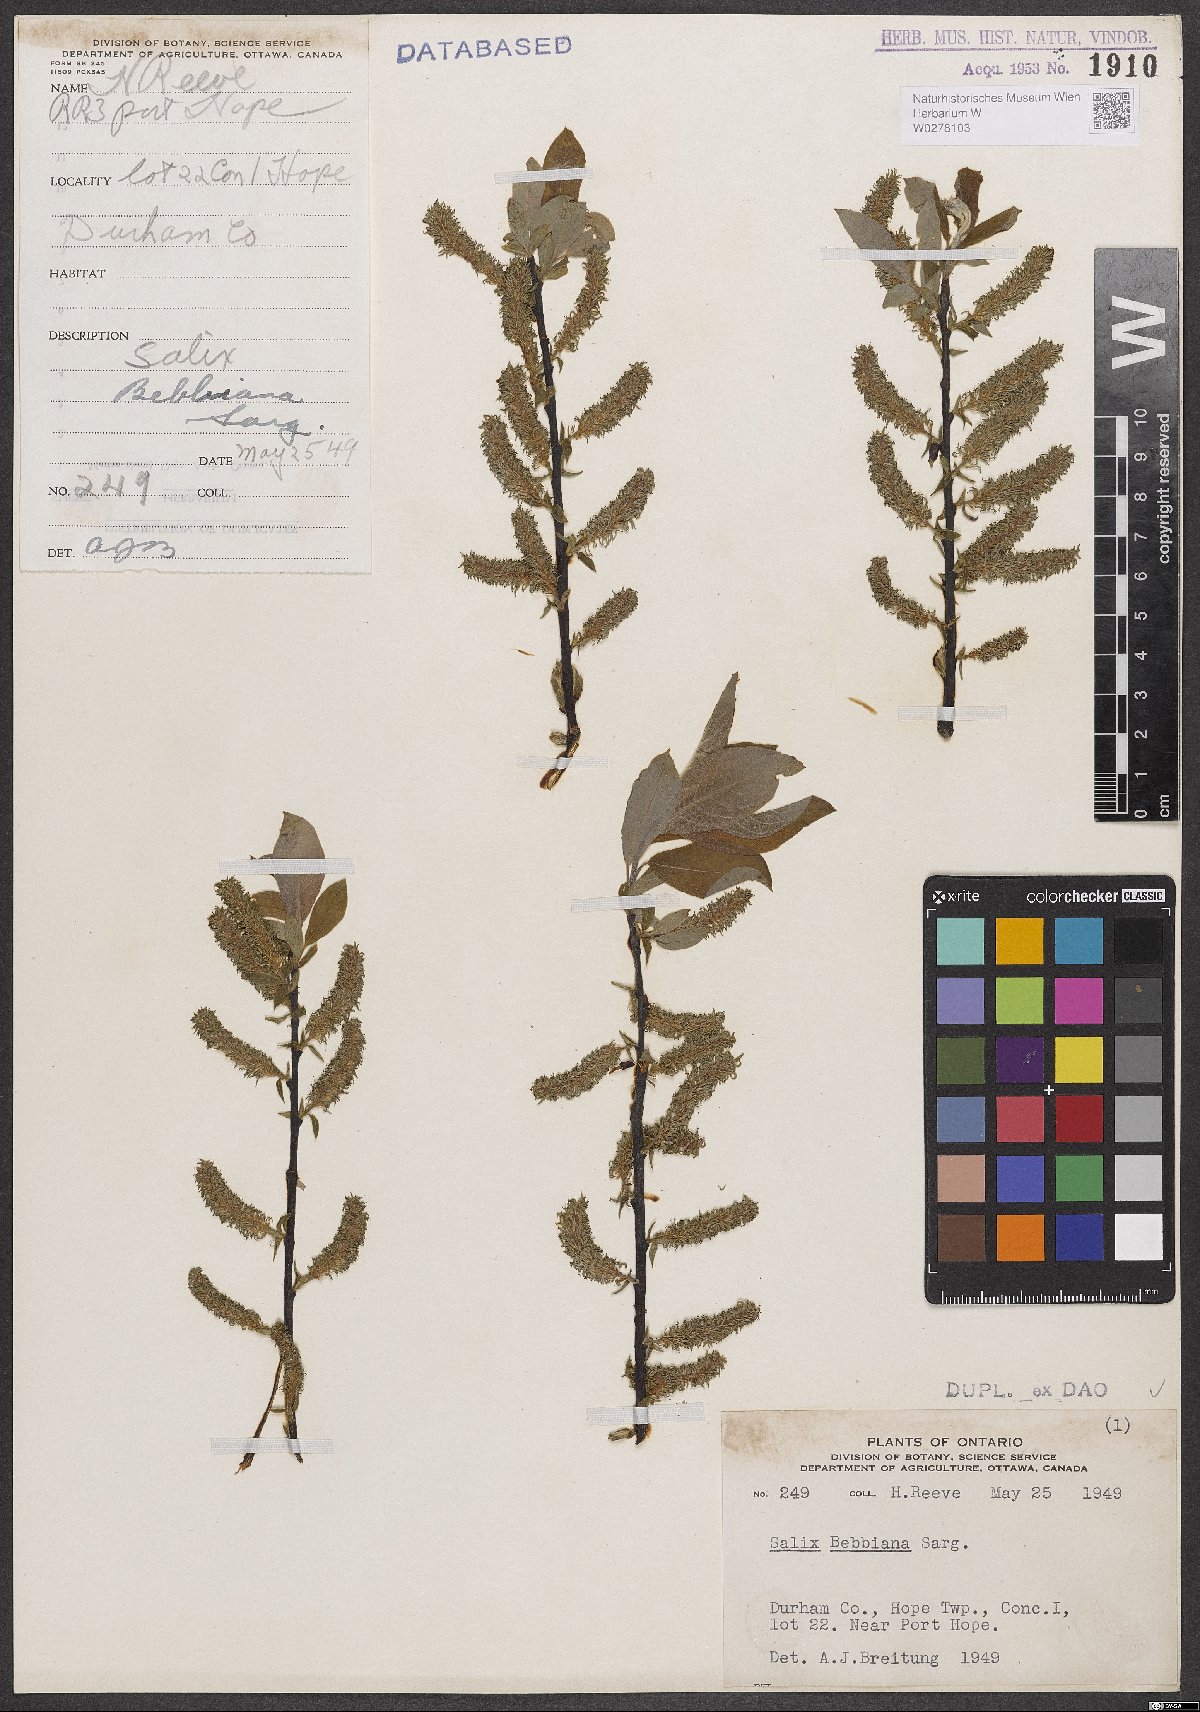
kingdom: Plantae
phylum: Tracheophyta
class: Magnoliopsida
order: Malpighiales
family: Salicaceae
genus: Salix
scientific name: Salix bebbiana
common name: Bebb's willow
